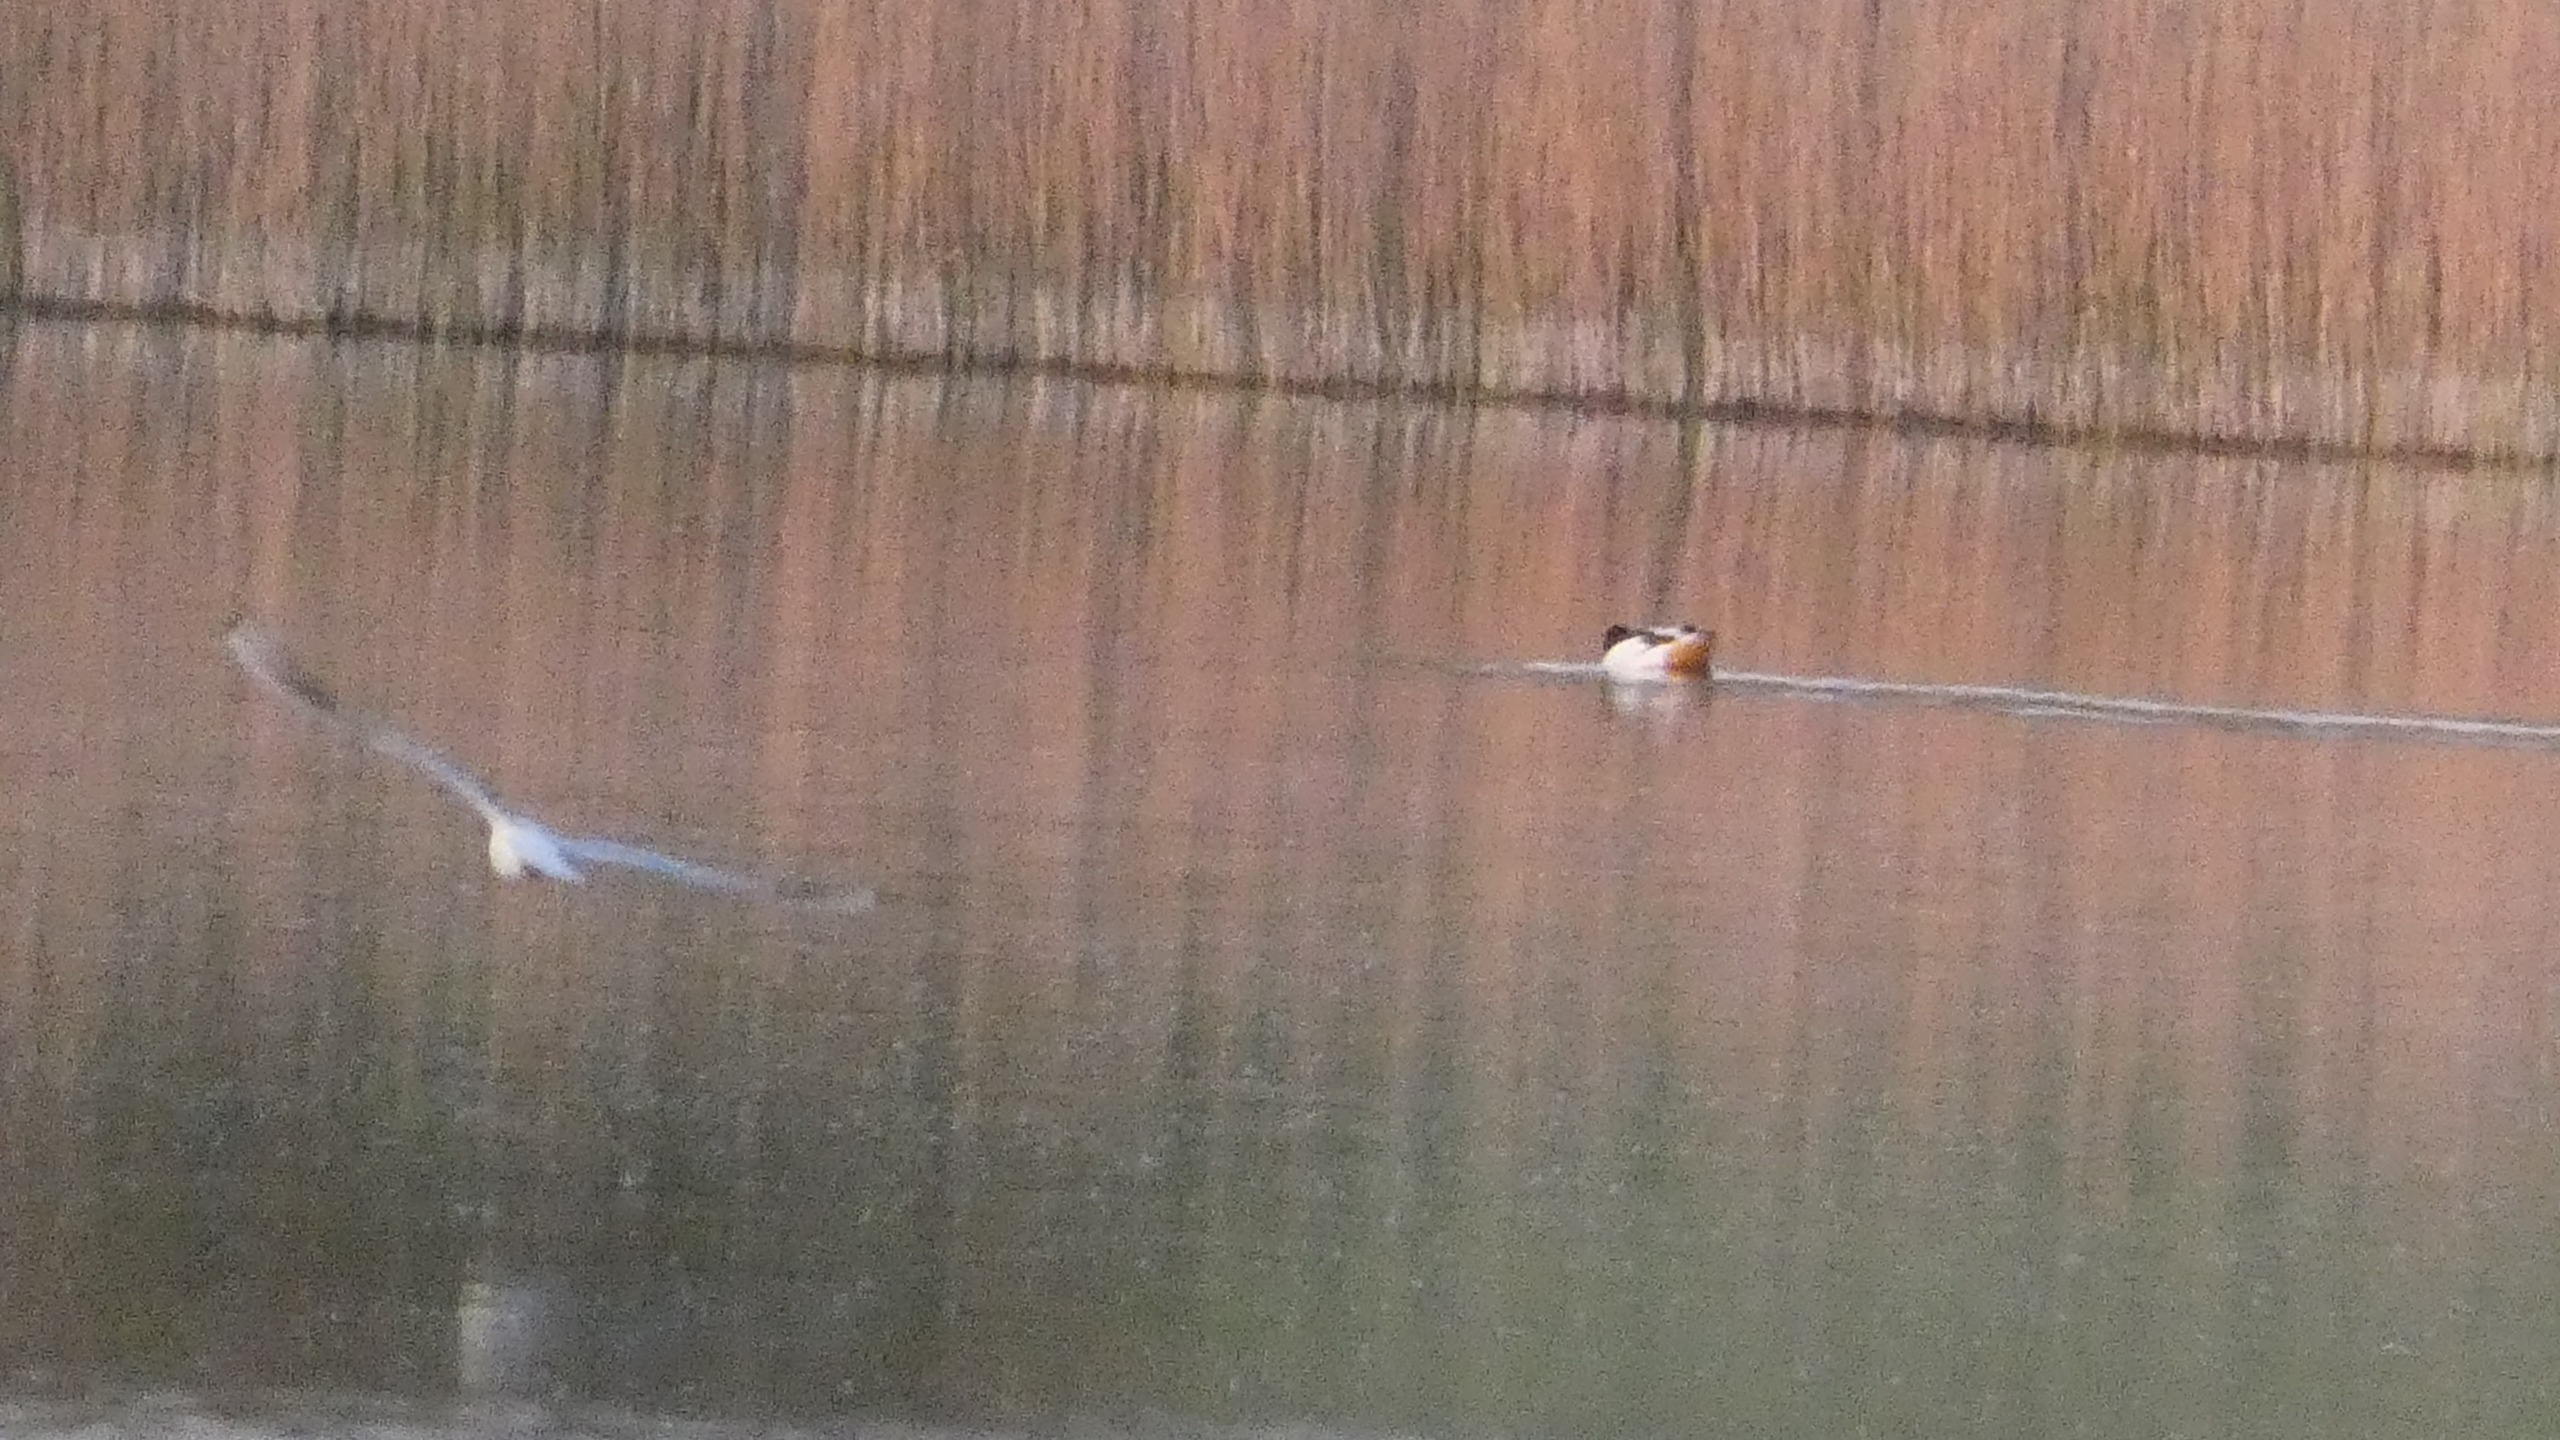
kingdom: Animalia
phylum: Chordata
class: Aves
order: Anseriformes
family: Anatidae
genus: Tadorna
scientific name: Tadorna tadorna
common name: Gravand
